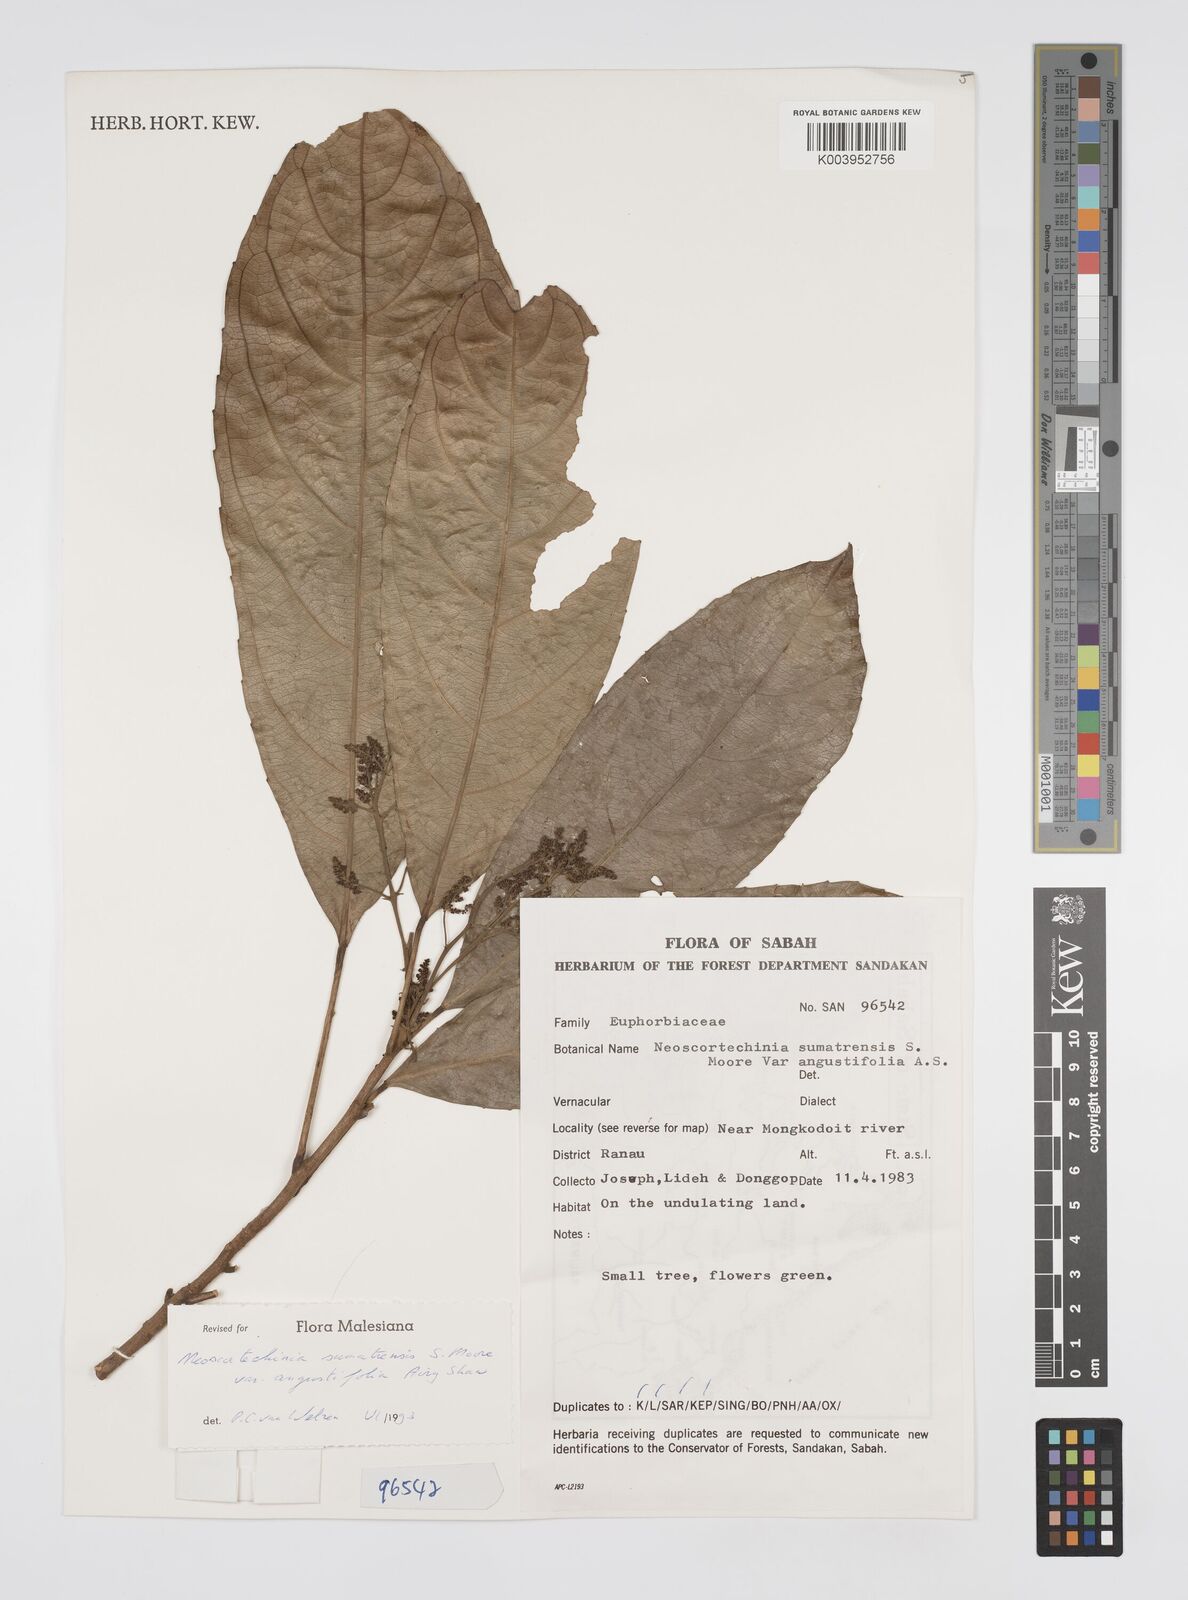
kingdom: Plantae
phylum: Tracheophyta
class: Magnoliopsida
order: Malpighiales
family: Euphorbiaceae
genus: Neoscortechinia
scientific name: Neoscortechinia angustifolia
